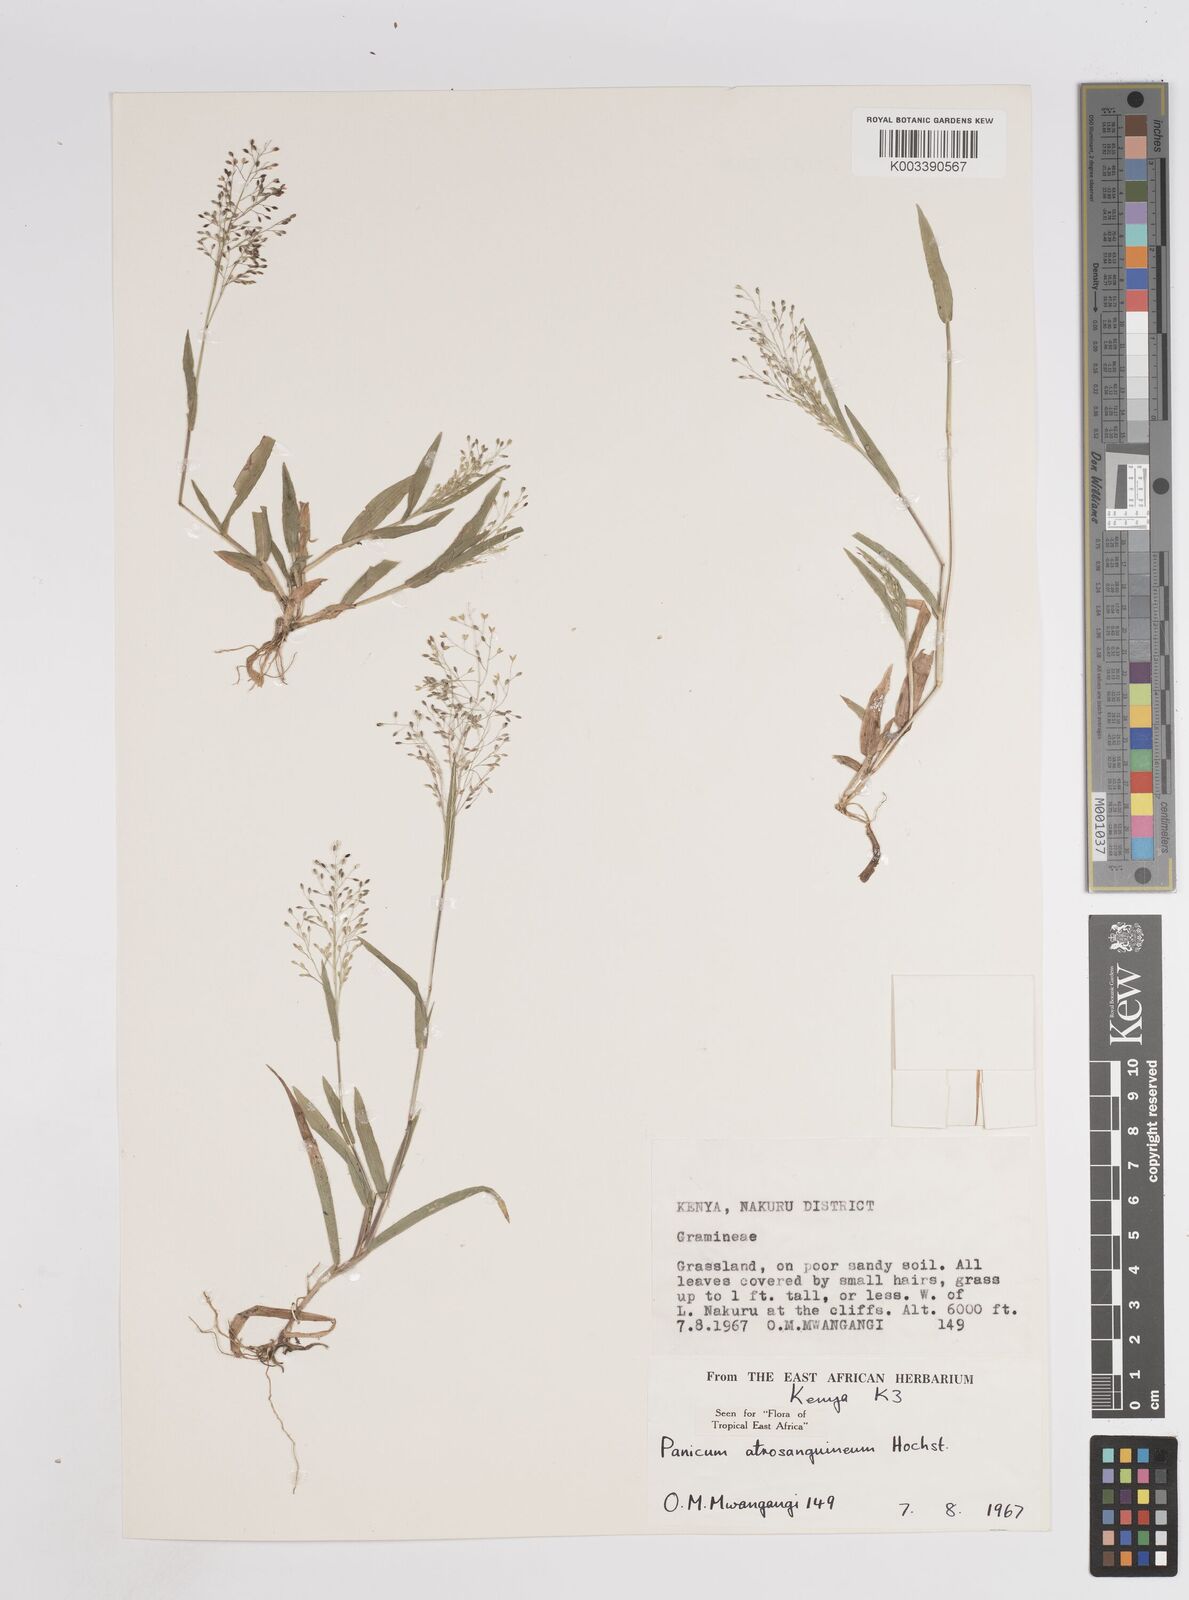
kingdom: Plantae
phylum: Tracheophyta
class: Liliopsida
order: Poales
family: Poaceae
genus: Panicum
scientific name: Panicum atrosanguineum
